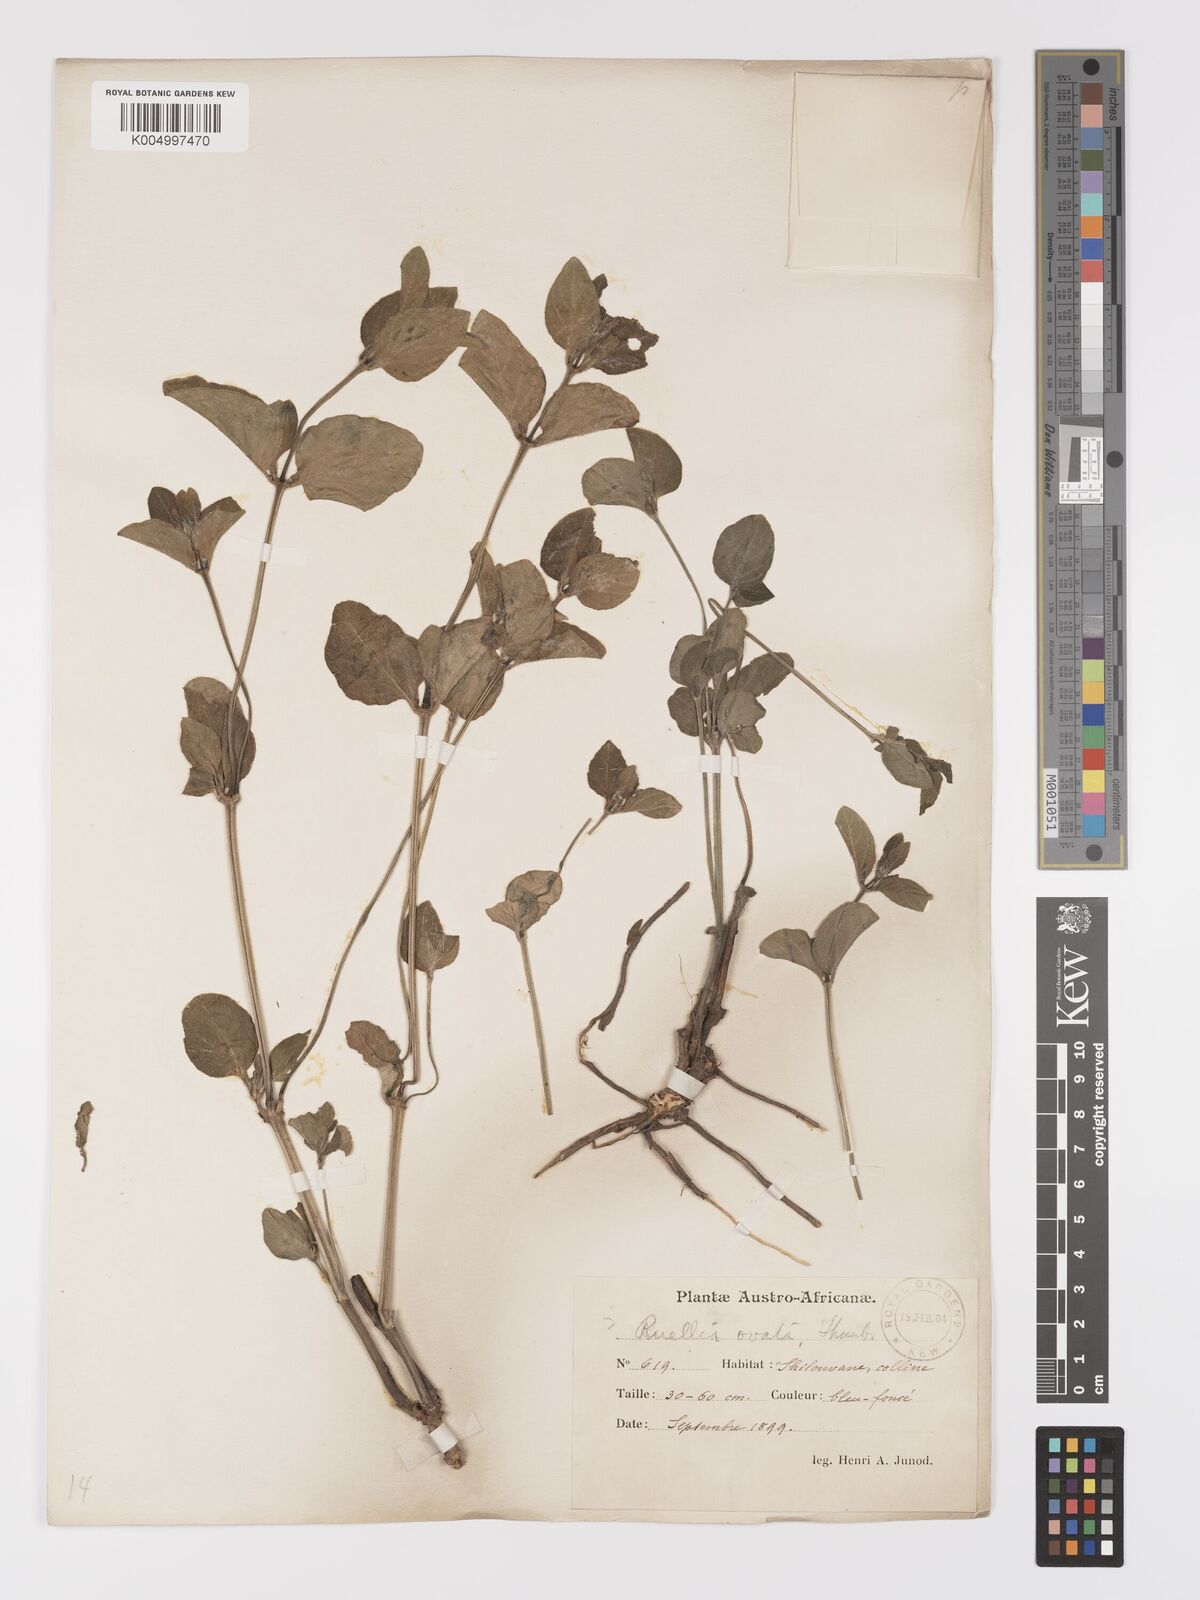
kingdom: Plantae
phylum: Tracheophyta
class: Magnoliopsida
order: Lamiales
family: Acanthaceae
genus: Ruellia
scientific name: Ruellia cordata
